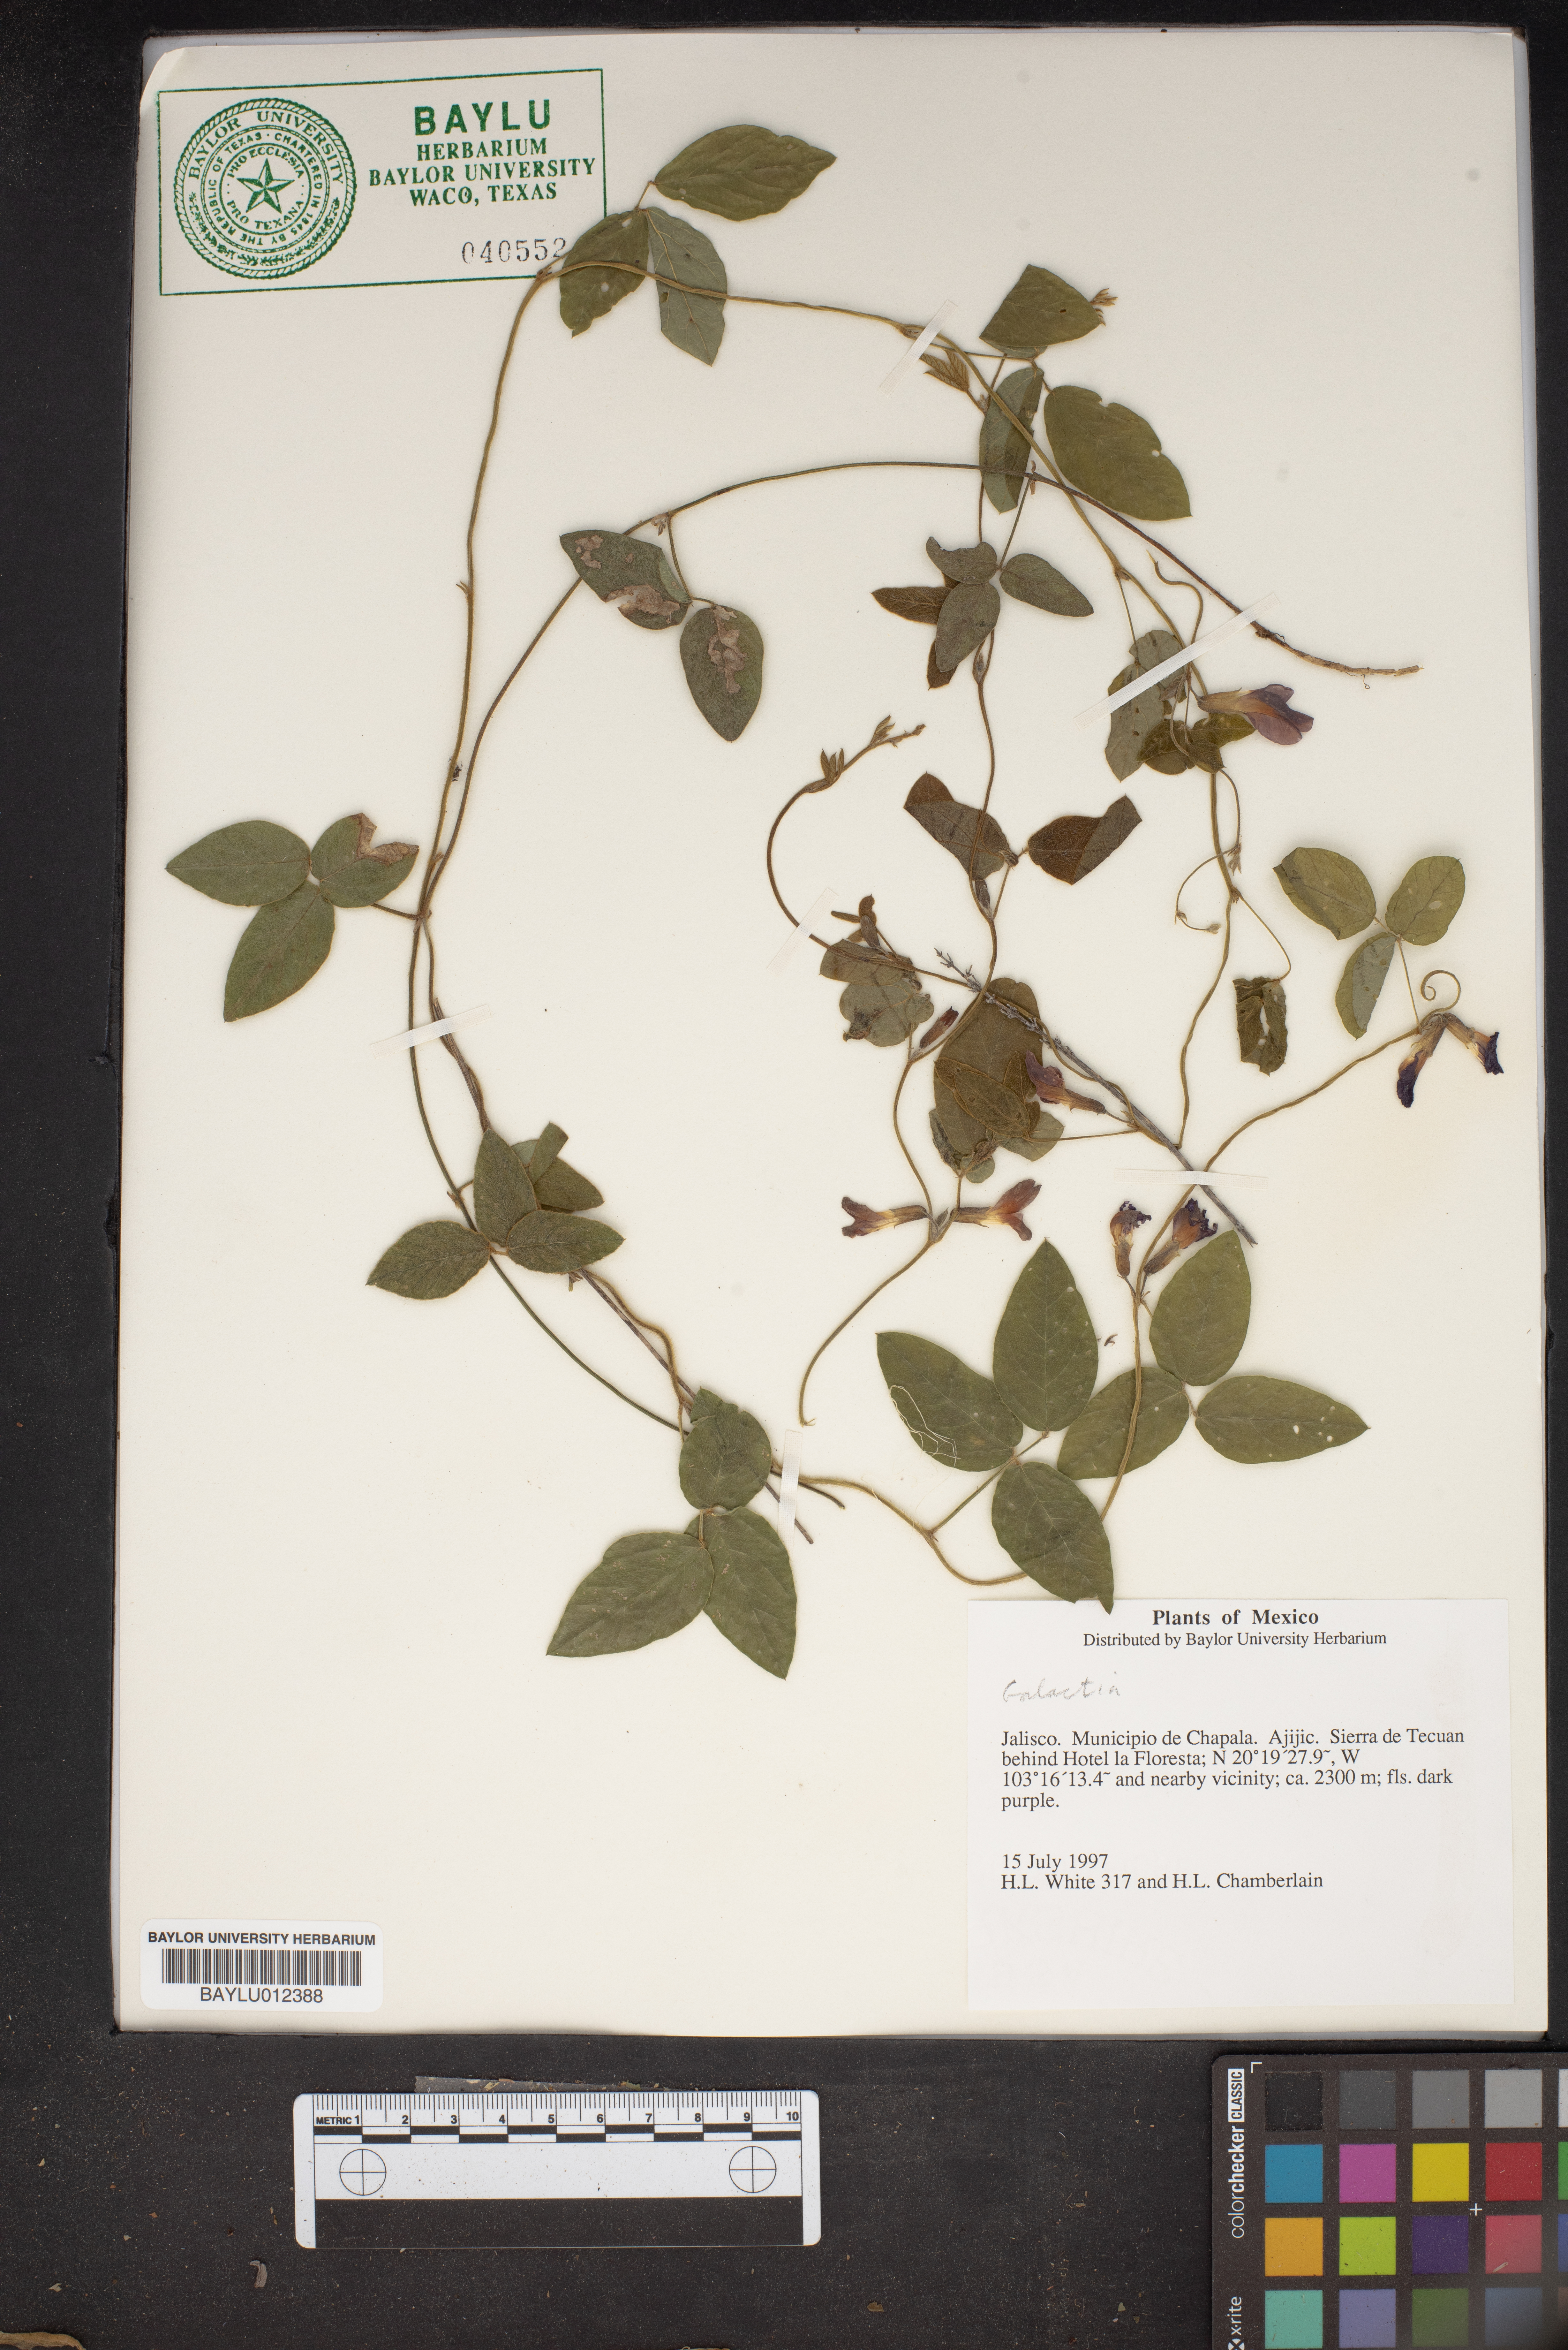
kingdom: Plantae
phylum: Tracheophyta
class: Magnoliopsida
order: Fabales
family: Fabaceae
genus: Galactia
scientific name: Galactia
